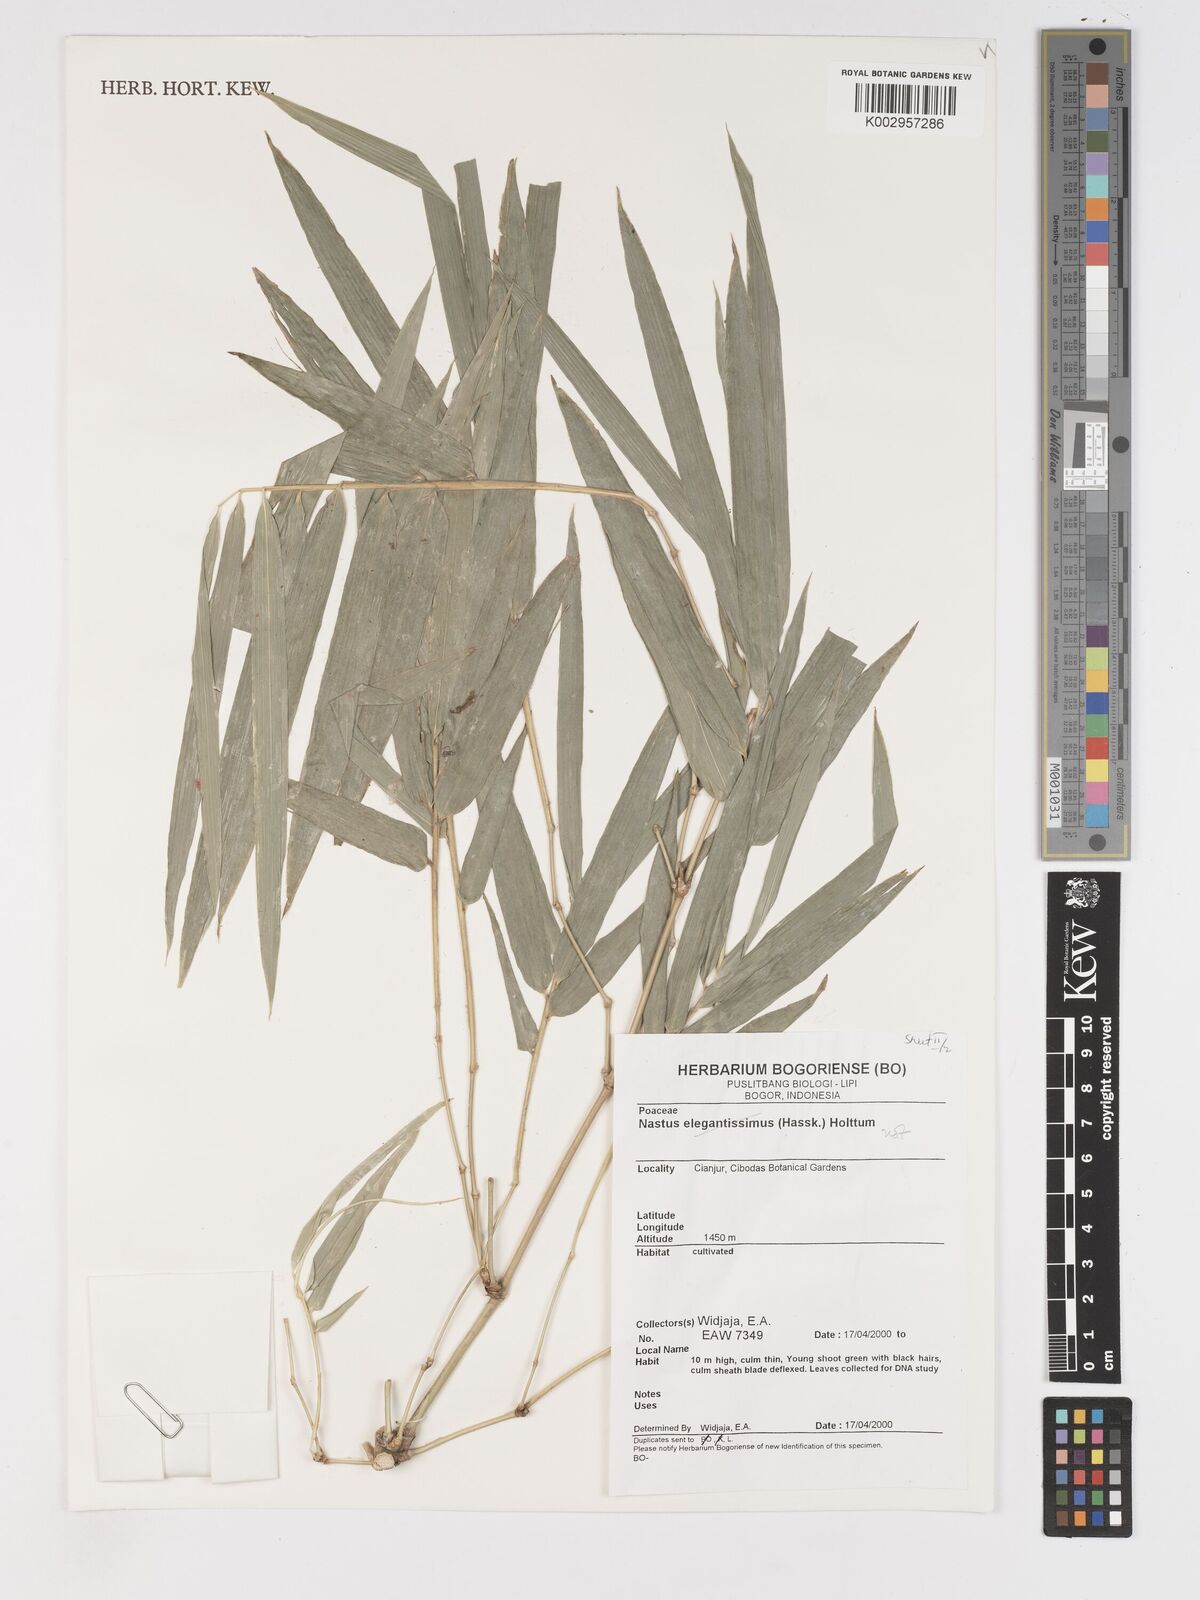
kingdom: Plantae
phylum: Tracheophyta
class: Liliopsida
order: Poales
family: Poaceae
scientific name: Poaceae
